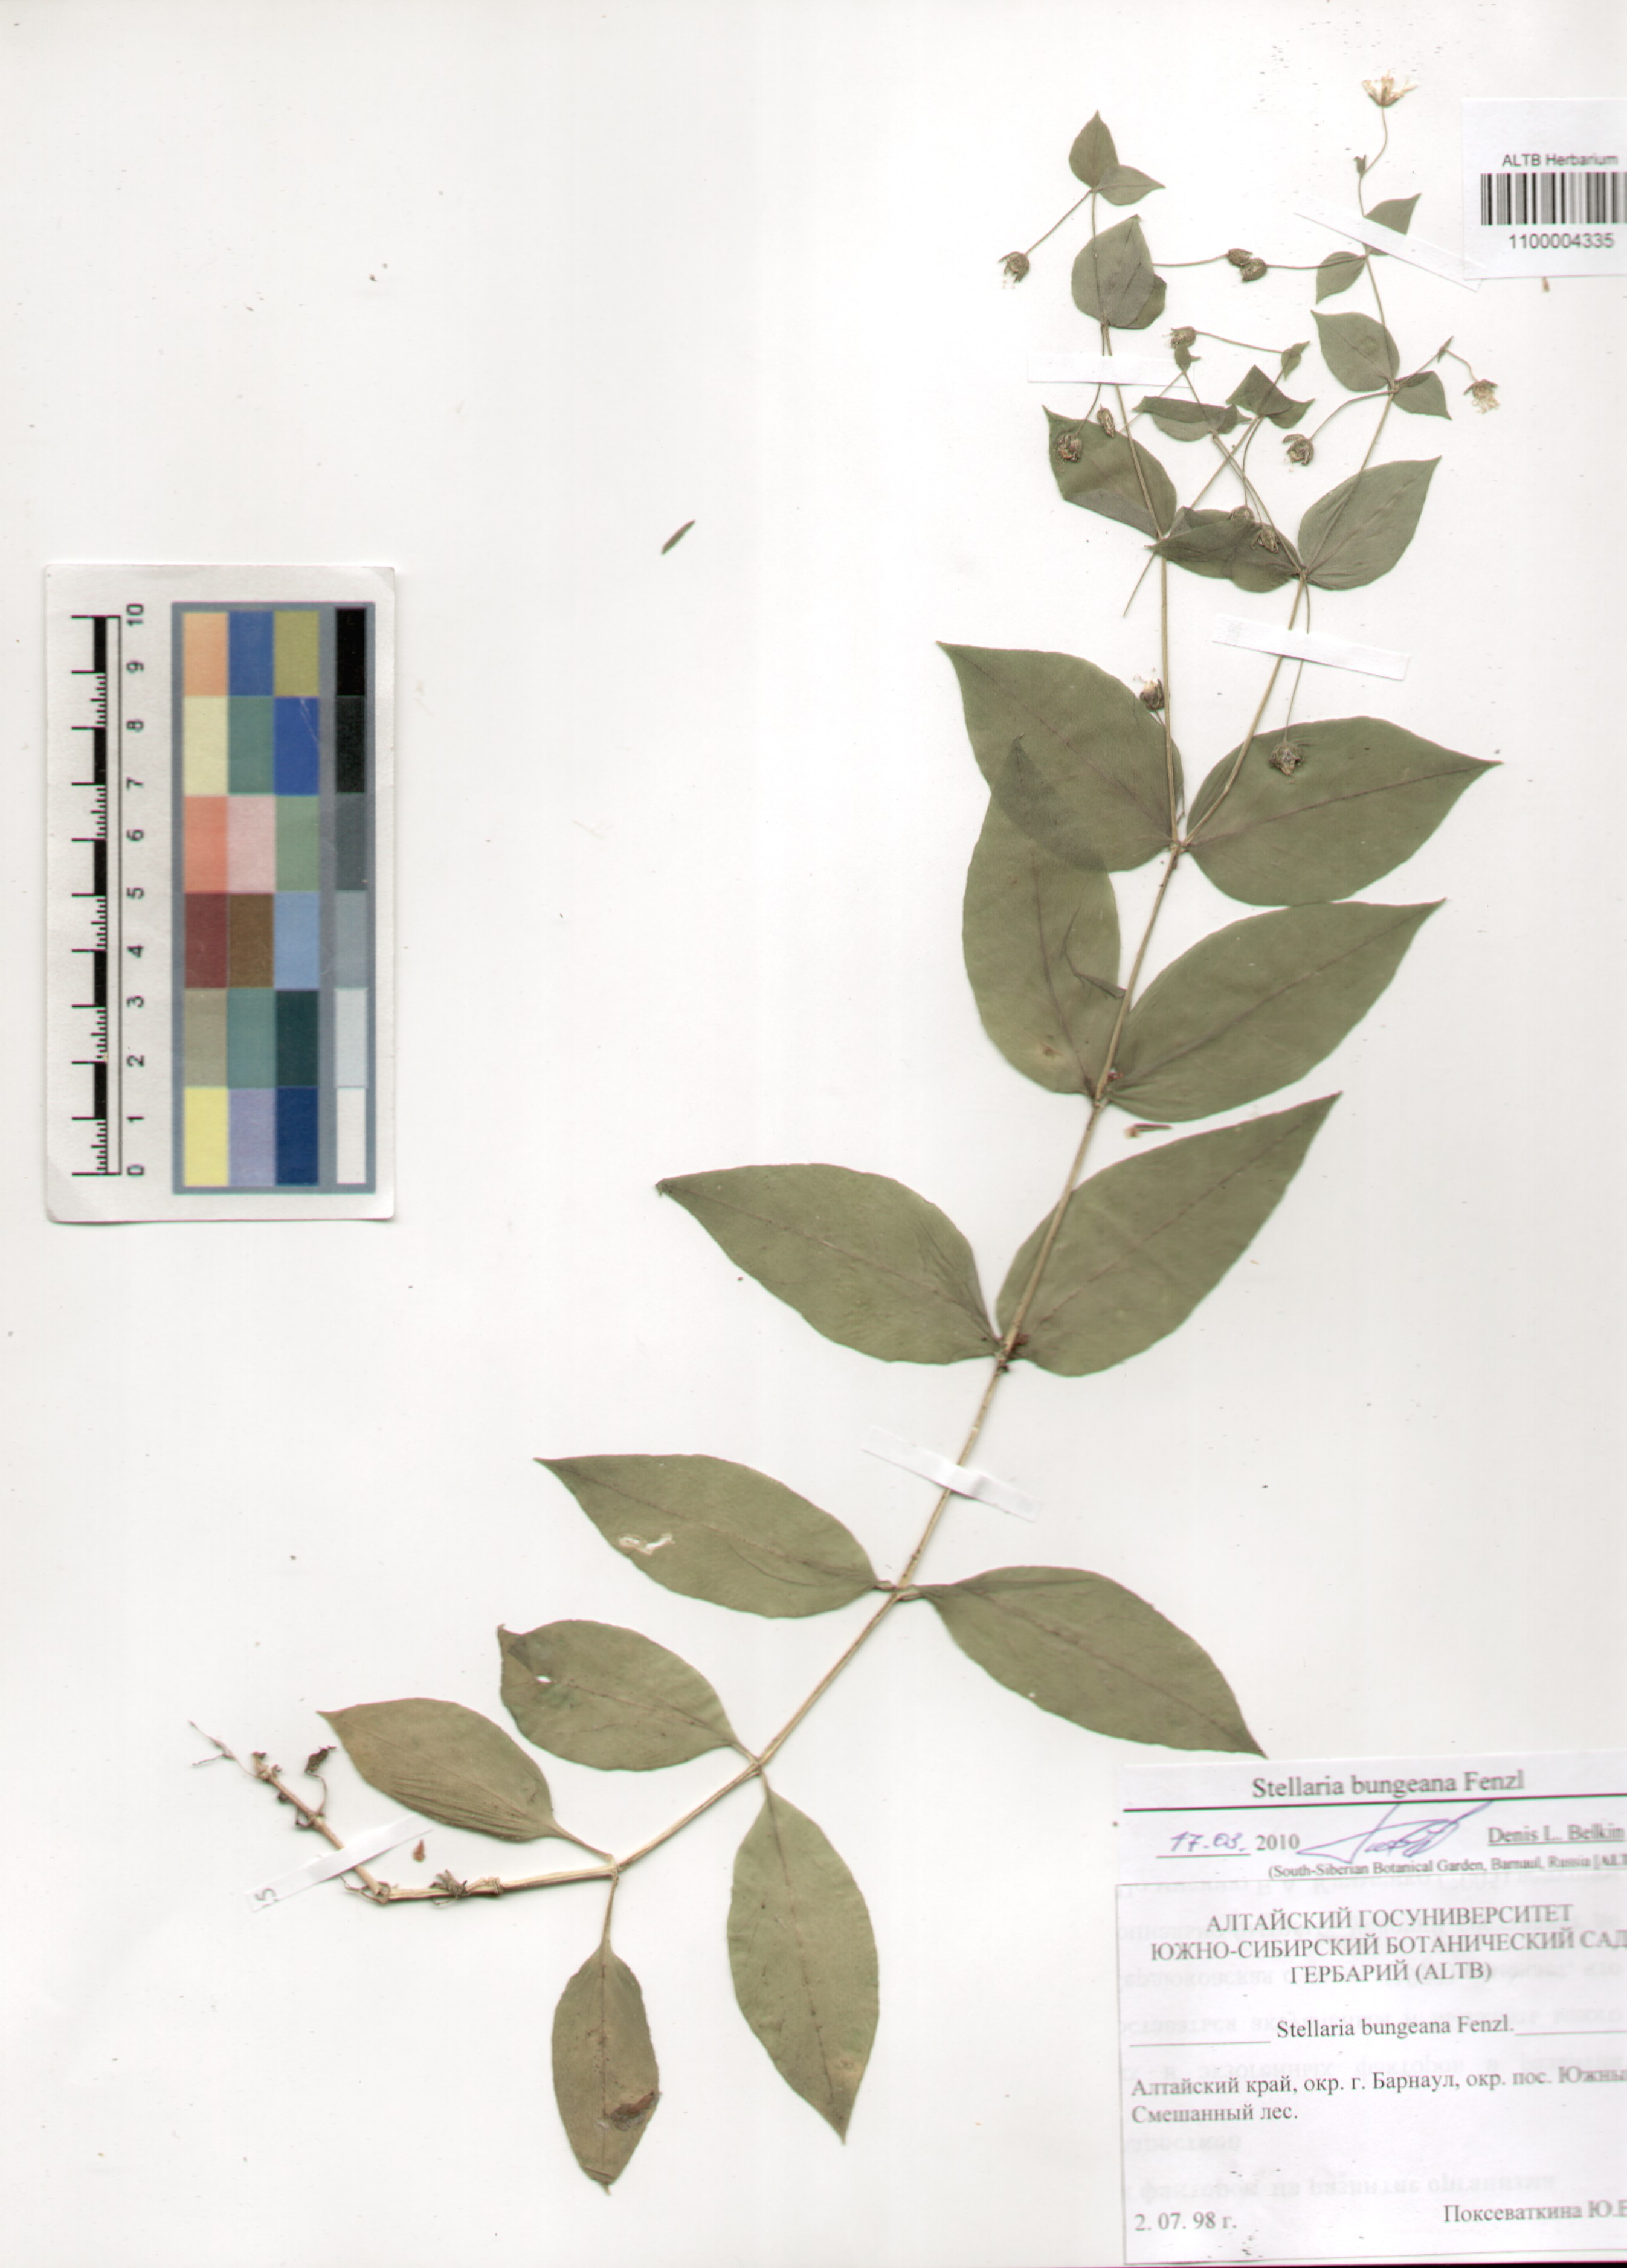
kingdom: Plantae
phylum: Tracheophyta
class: Magnoliopsida
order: Caryophyllales
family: Caryophyllaceae
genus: Stellaria
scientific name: Stellaria bungeana
